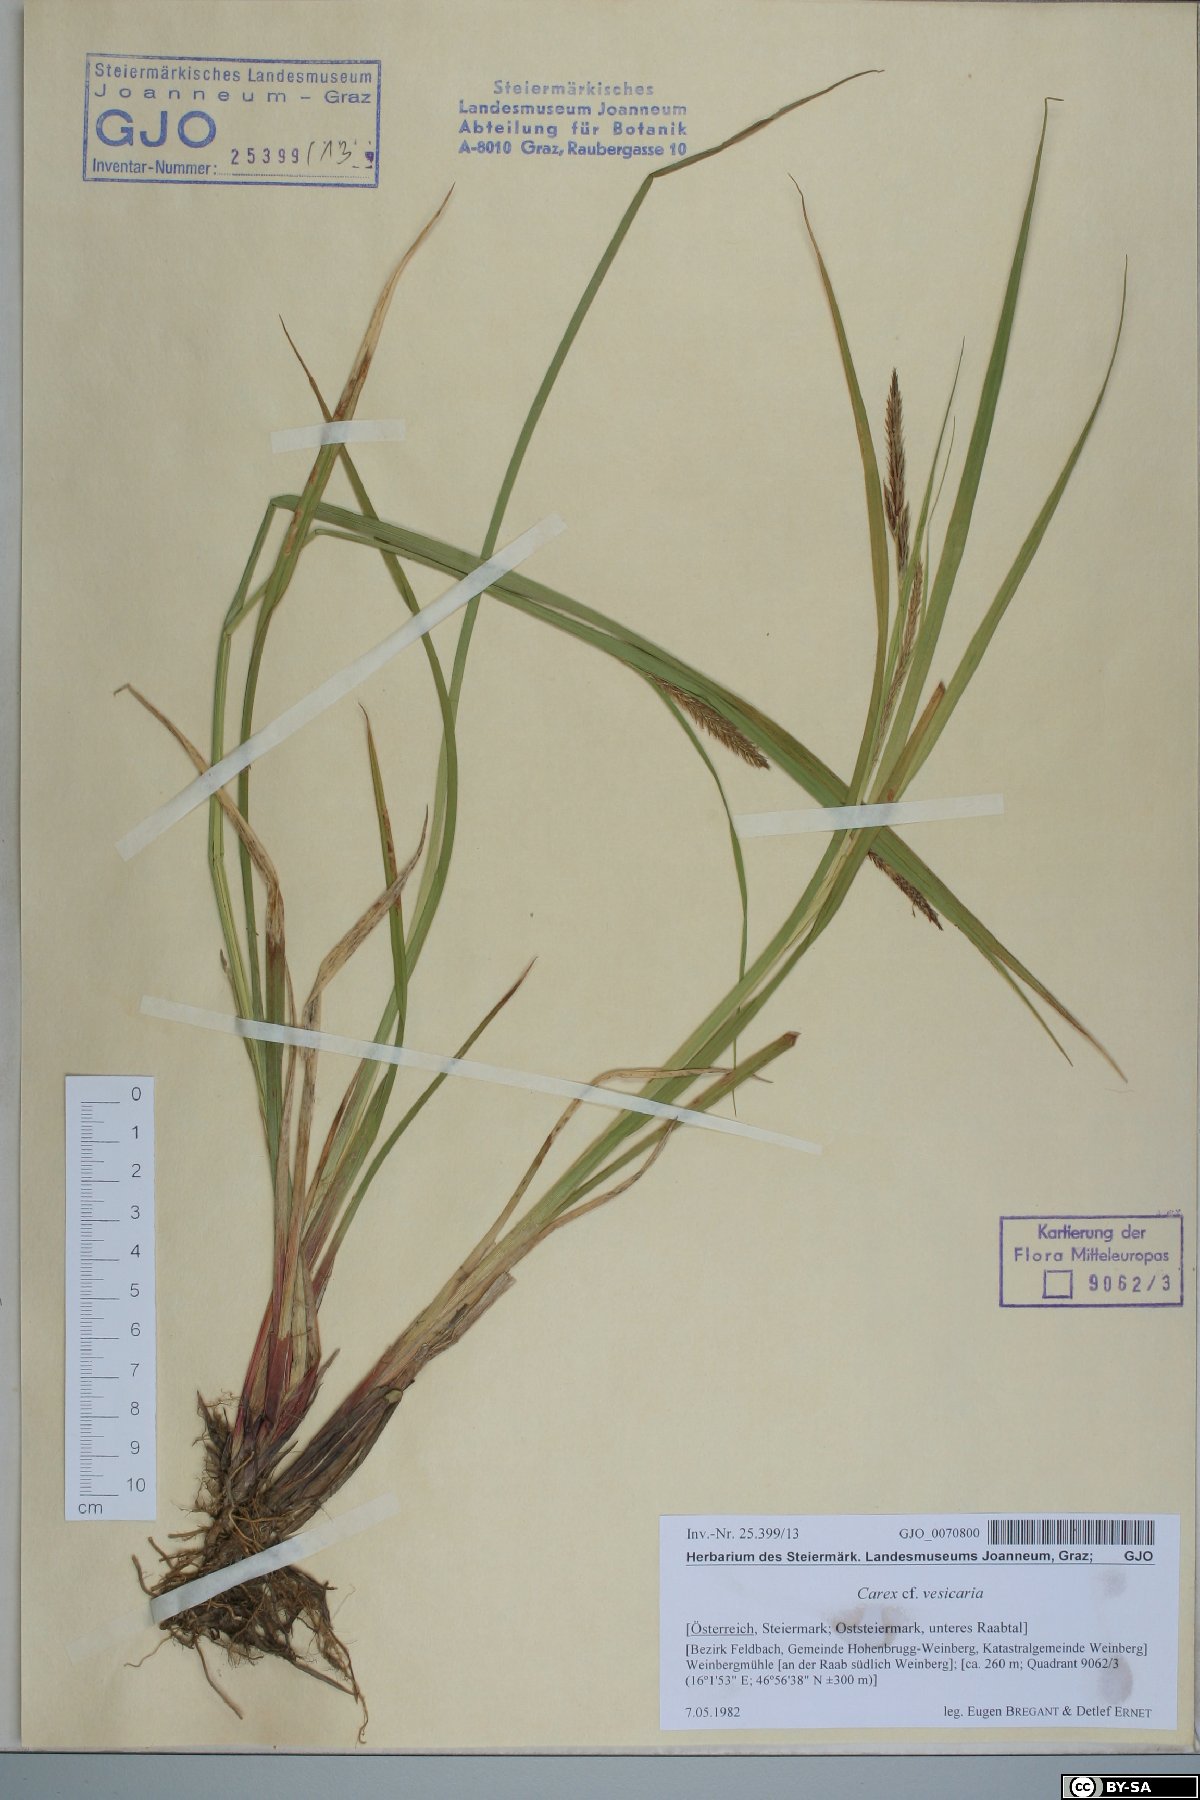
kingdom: Plantae
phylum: Tracheophyta
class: Liliopsida
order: Poales
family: Cyperaceae
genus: Carex
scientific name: Carex vesicaria
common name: Bladder-sedge
